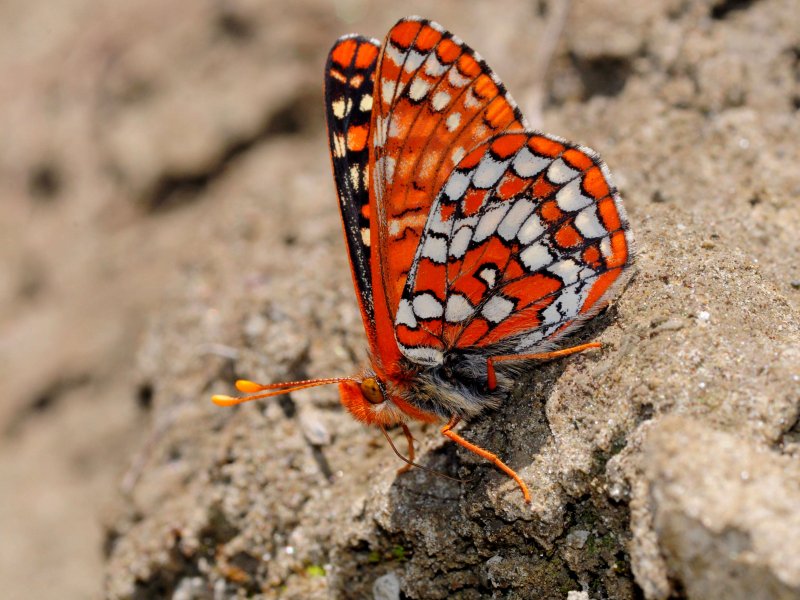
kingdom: Animalia
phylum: Arthropoda
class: Insecta
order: Lepidoptera
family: Nymphalidae
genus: Occidryas
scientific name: Occidryas anicia
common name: Anicia Checkerspot
